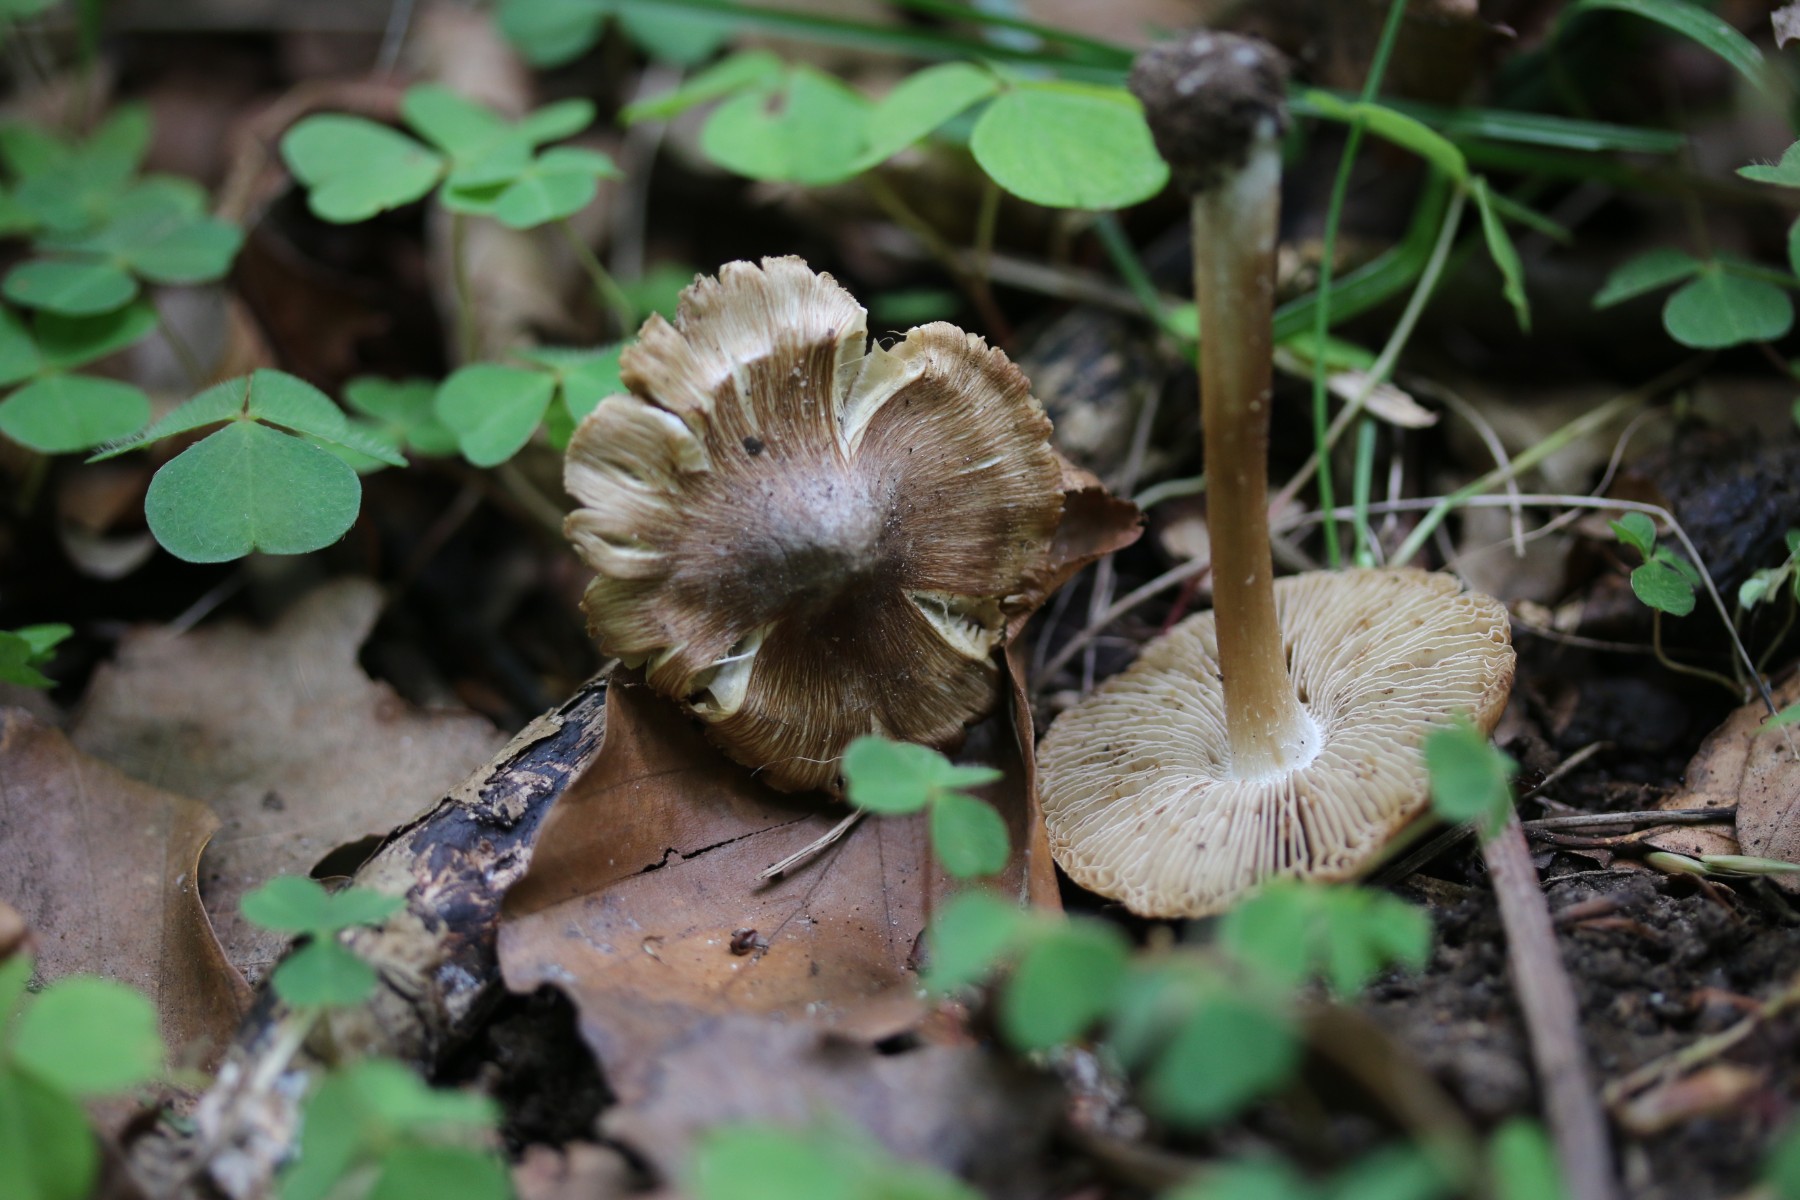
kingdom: Fungi
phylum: Basidiomycota
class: Agaricomycetes
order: Agaricales
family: Inocybaceae
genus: Inosperma
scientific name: Inosperma
